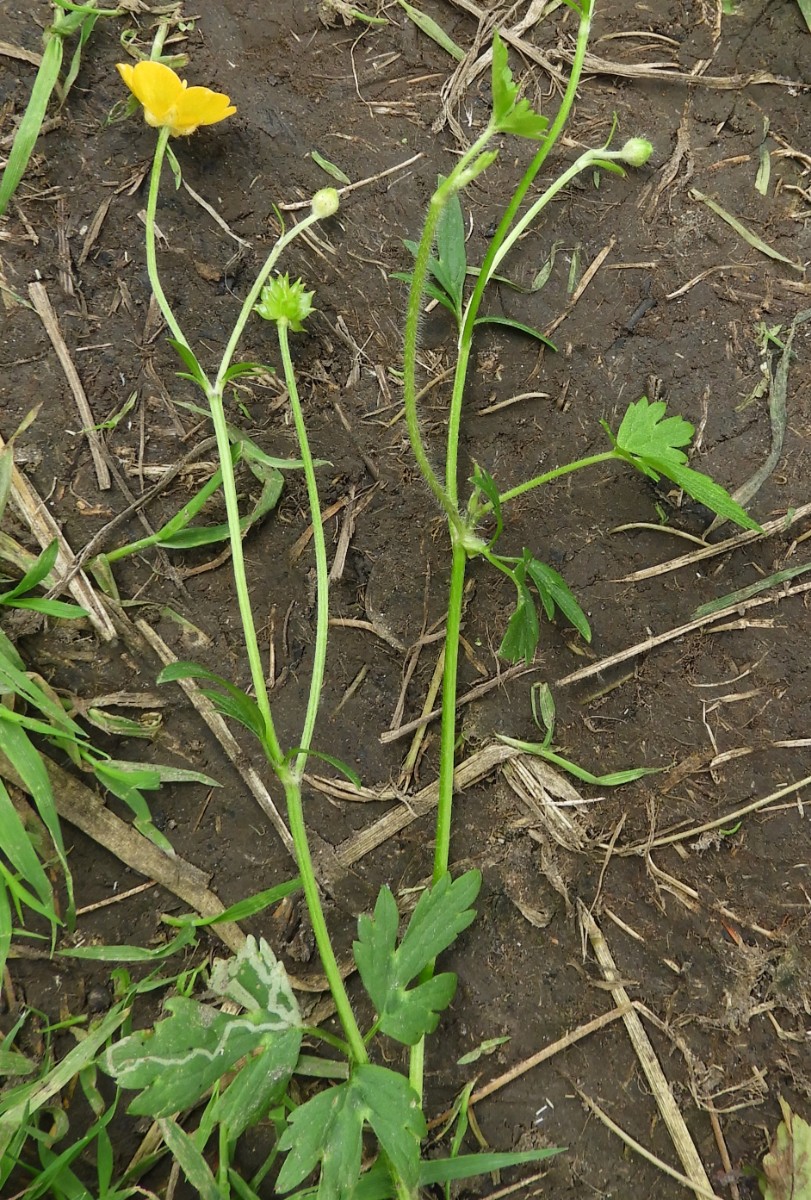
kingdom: Fungi
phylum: Basidiomycota
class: Pucciniomycetes
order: Pucciniales
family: Pucciniaceae
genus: Puccinia
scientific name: Puccinia recondita
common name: Brown rust of wheat
